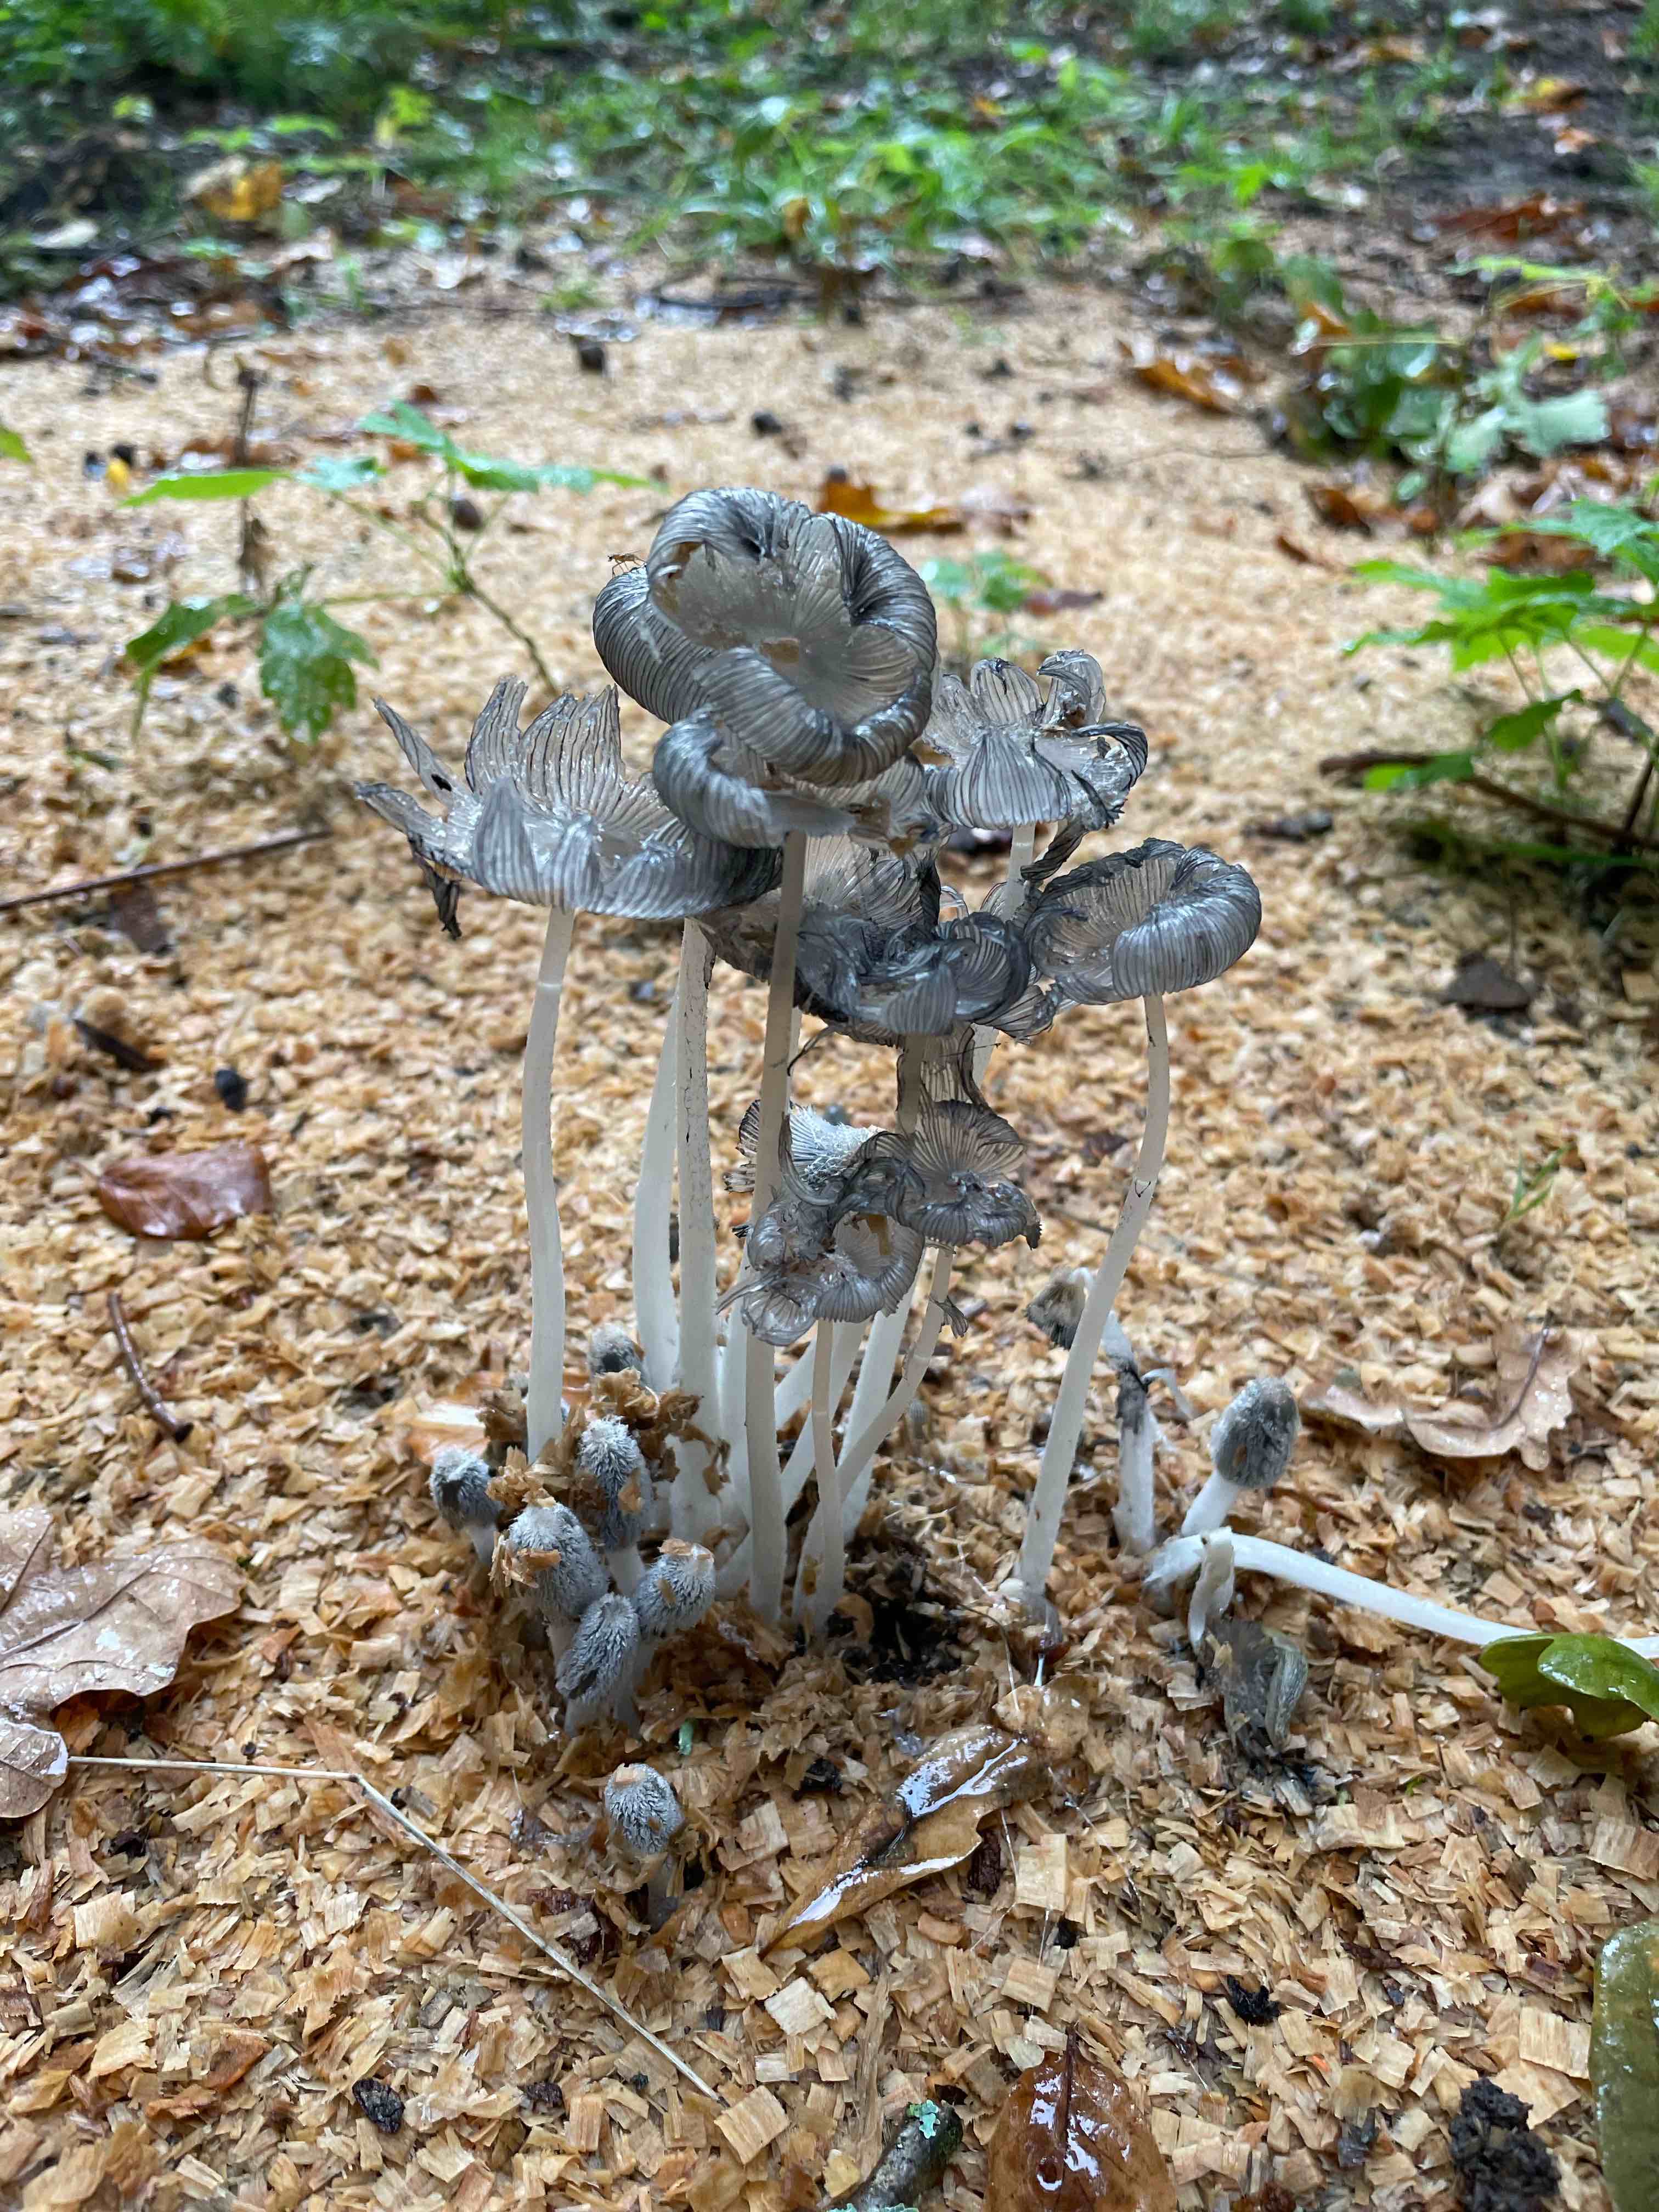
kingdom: Fungi
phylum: Basidiomycota
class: Agaricomycetes
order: Agaricales
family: Psathyrellaceae
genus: Coprinopsis
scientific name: Coprinopsis lagopus
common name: dunstokket blækhat
